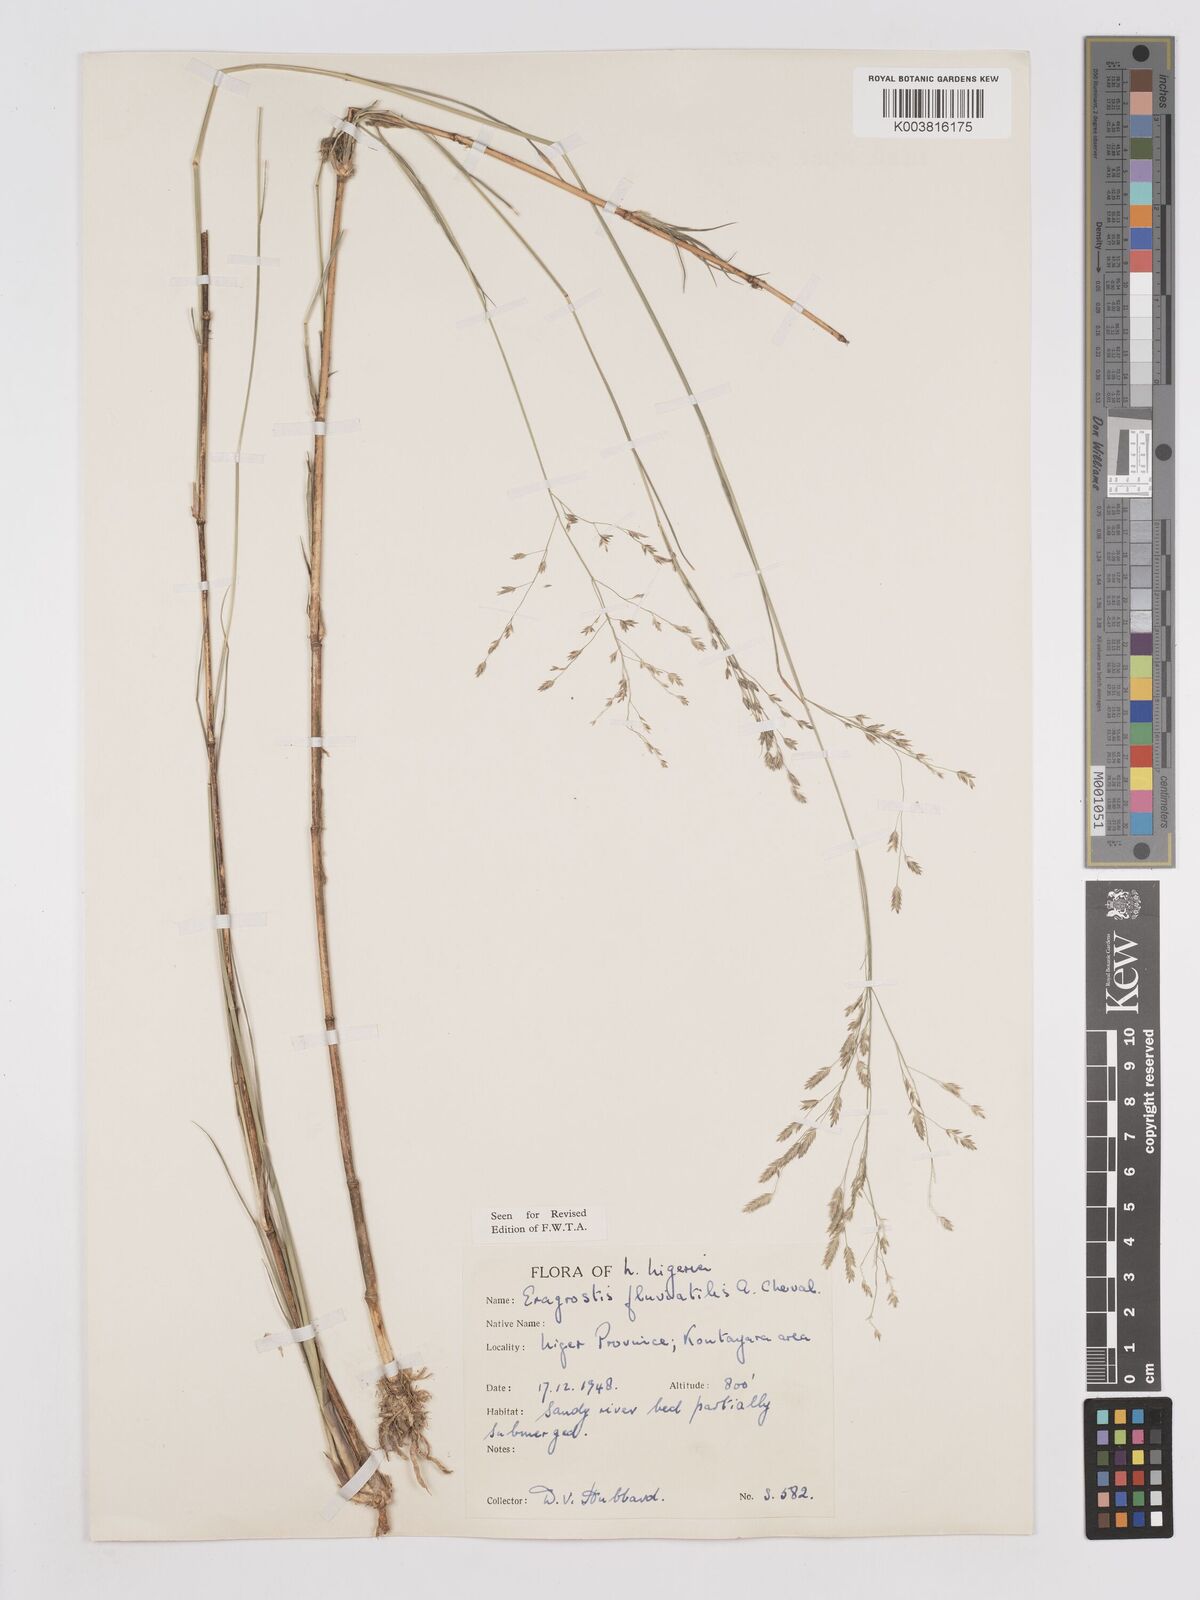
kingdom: Plantae
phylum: Tracheophyta
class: Liliopsida
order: Poales
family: Poaceae
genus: Eragrostis
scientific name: Eragrostis barteri
